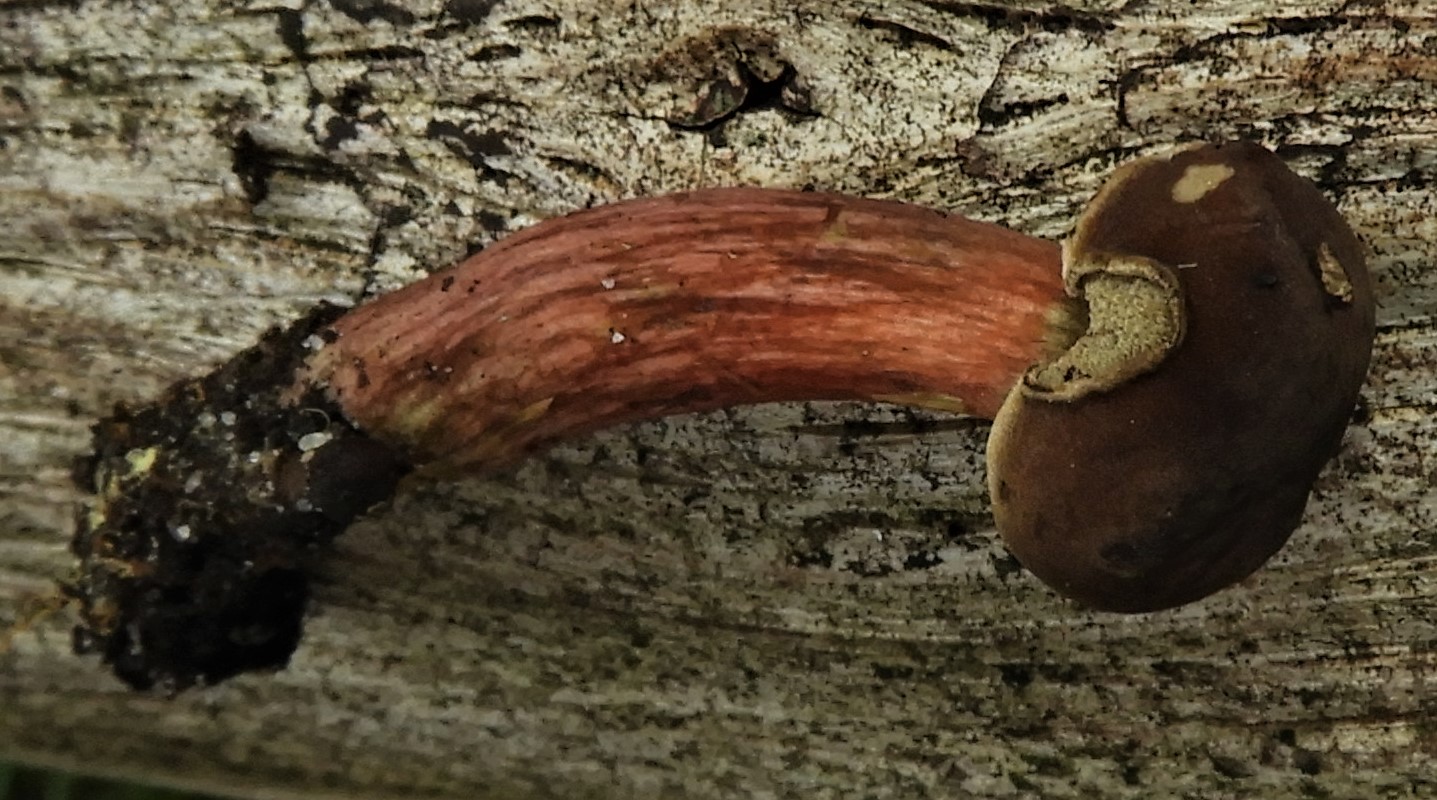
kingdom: Fungi
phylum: Basidiomycota
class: Agaricomycetes
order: Boletales
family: Boletaceae
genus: Hortiboletus
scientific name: Hortiboletus
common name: dværgrørhat
